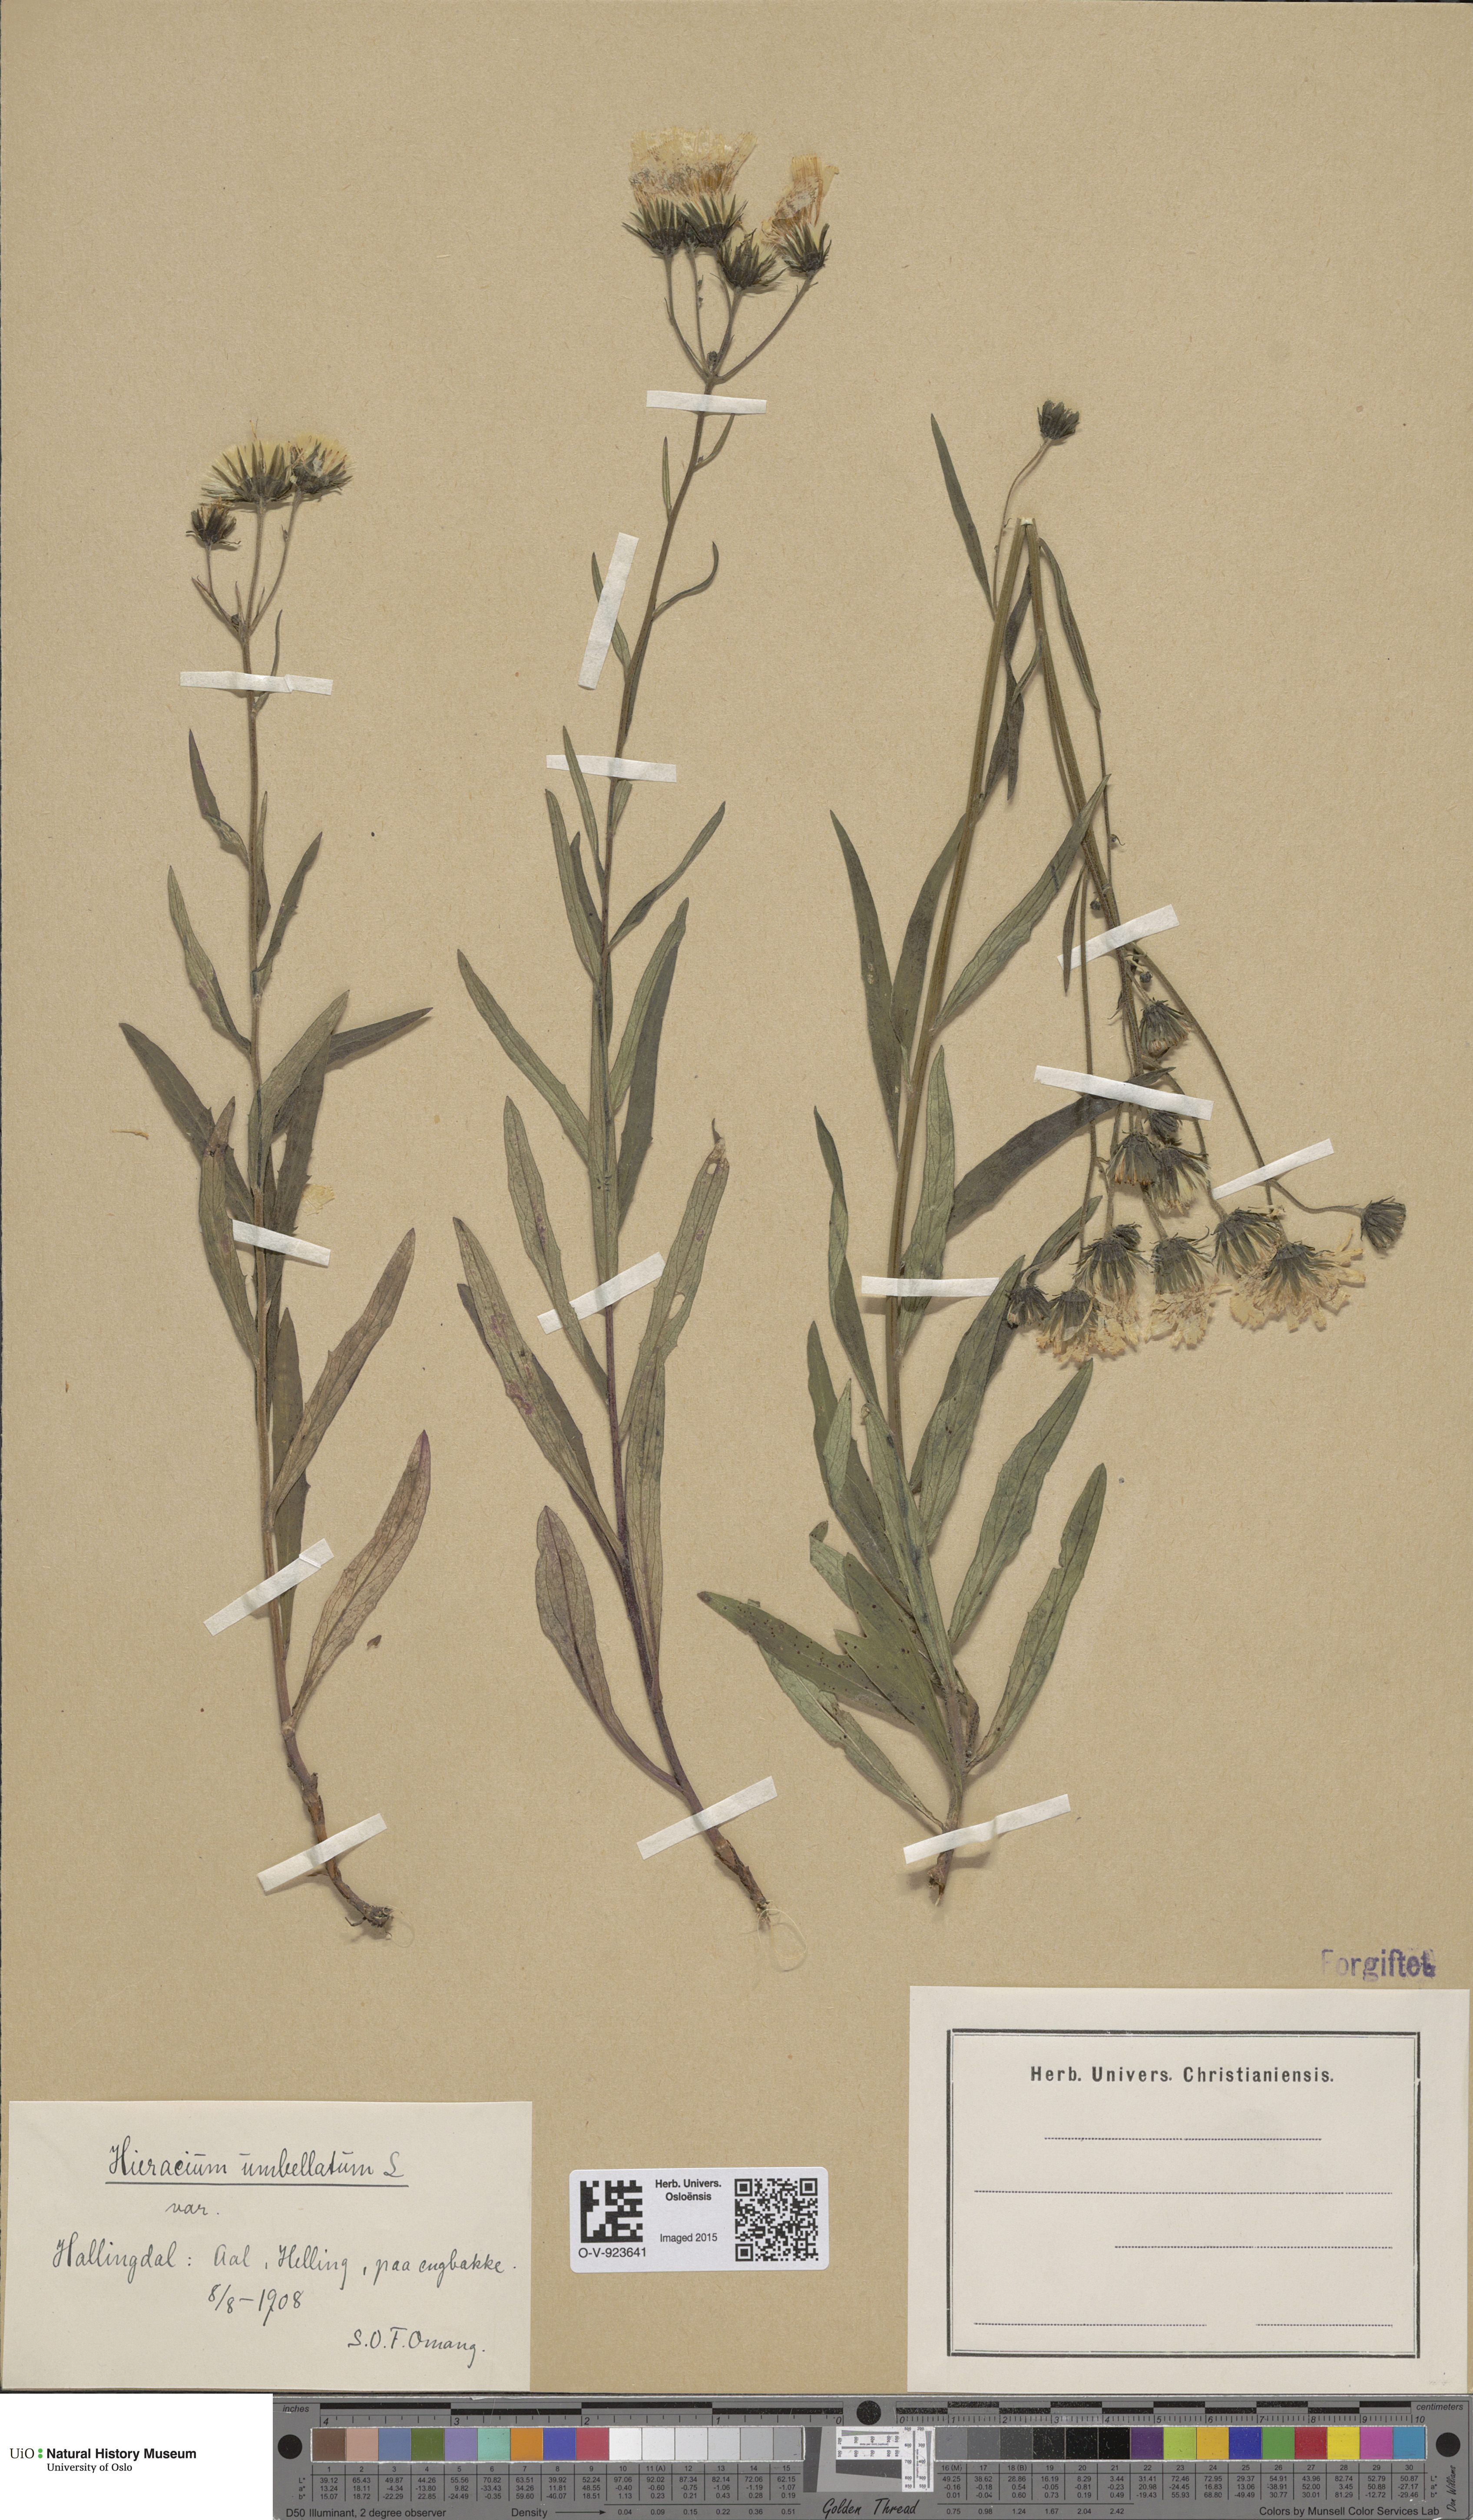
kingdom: Plantae
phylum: Tracheophyta
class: Magnoliopsida
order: Asterales
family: Asteraceae
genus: Hieracium
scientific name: Hieracium umbellatum
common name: Northern hawkweed
